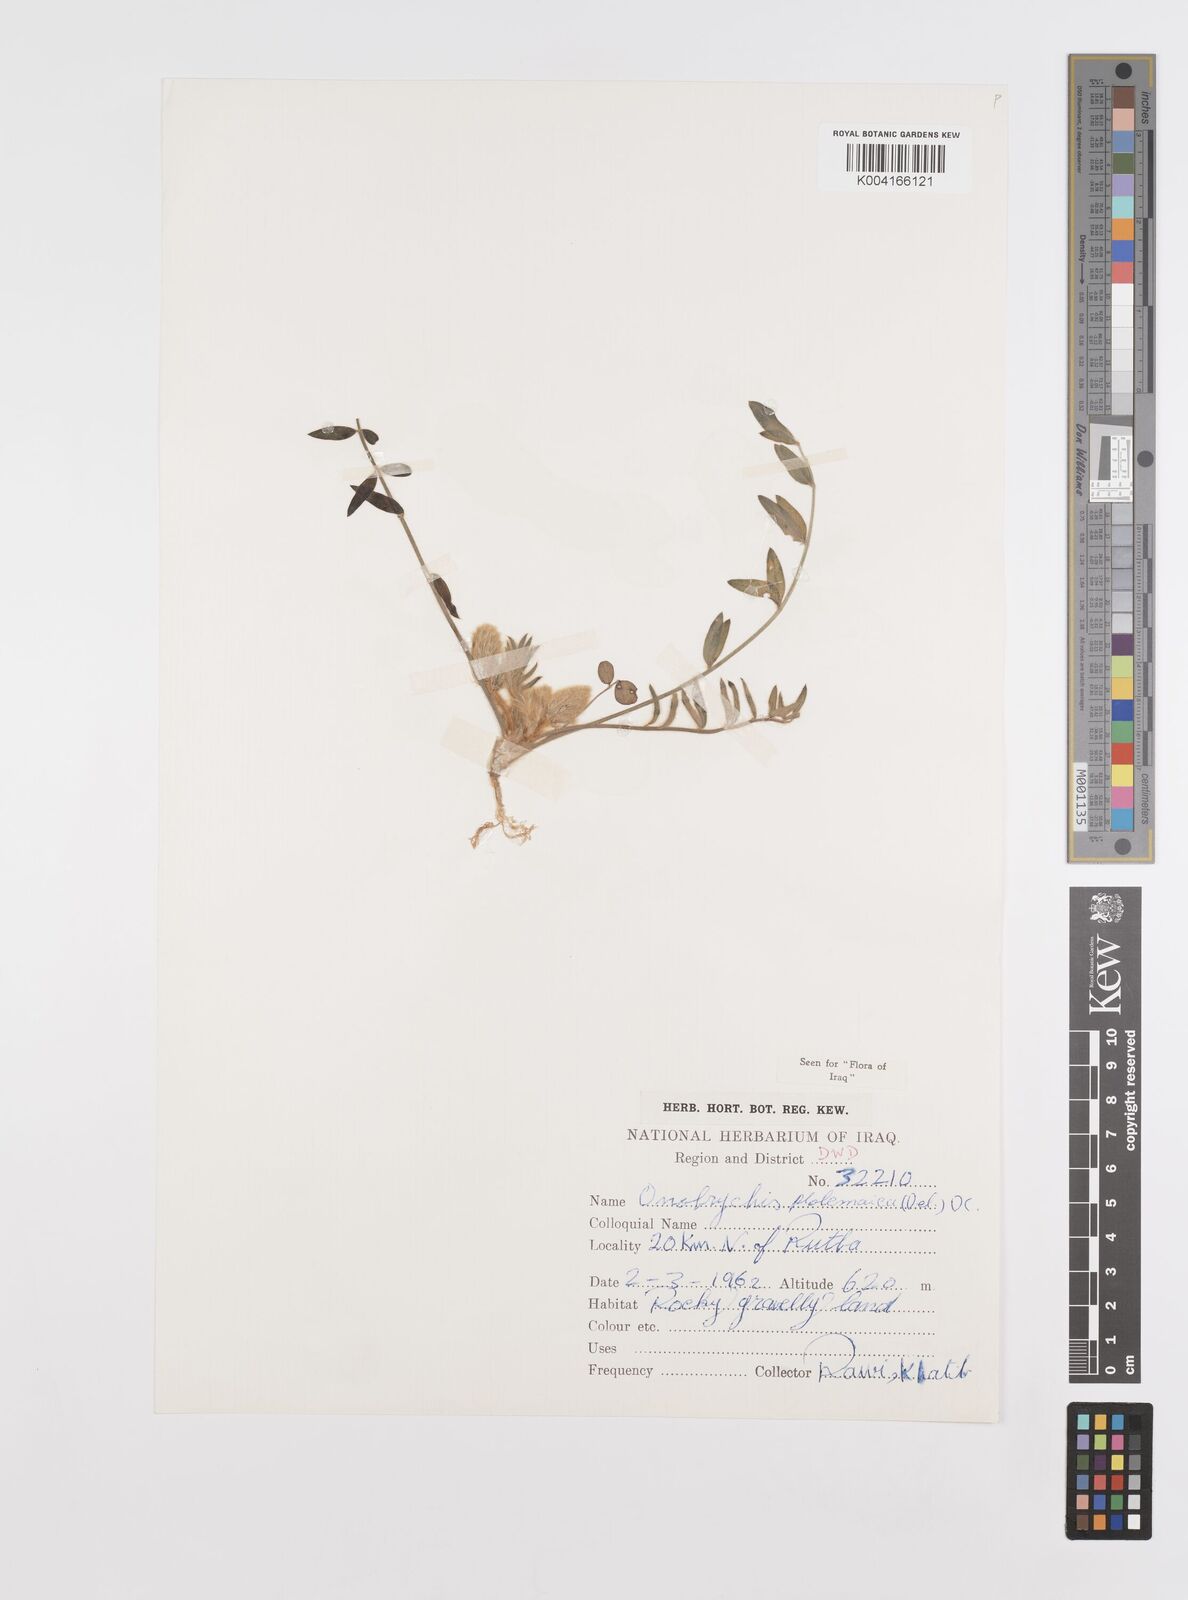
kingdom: Plantae
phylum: Tracheophyta
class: Magnoliopsida
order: Fabales
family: Fabaceae
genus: Onobrychis
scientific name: Onobrychis ptolemaica
